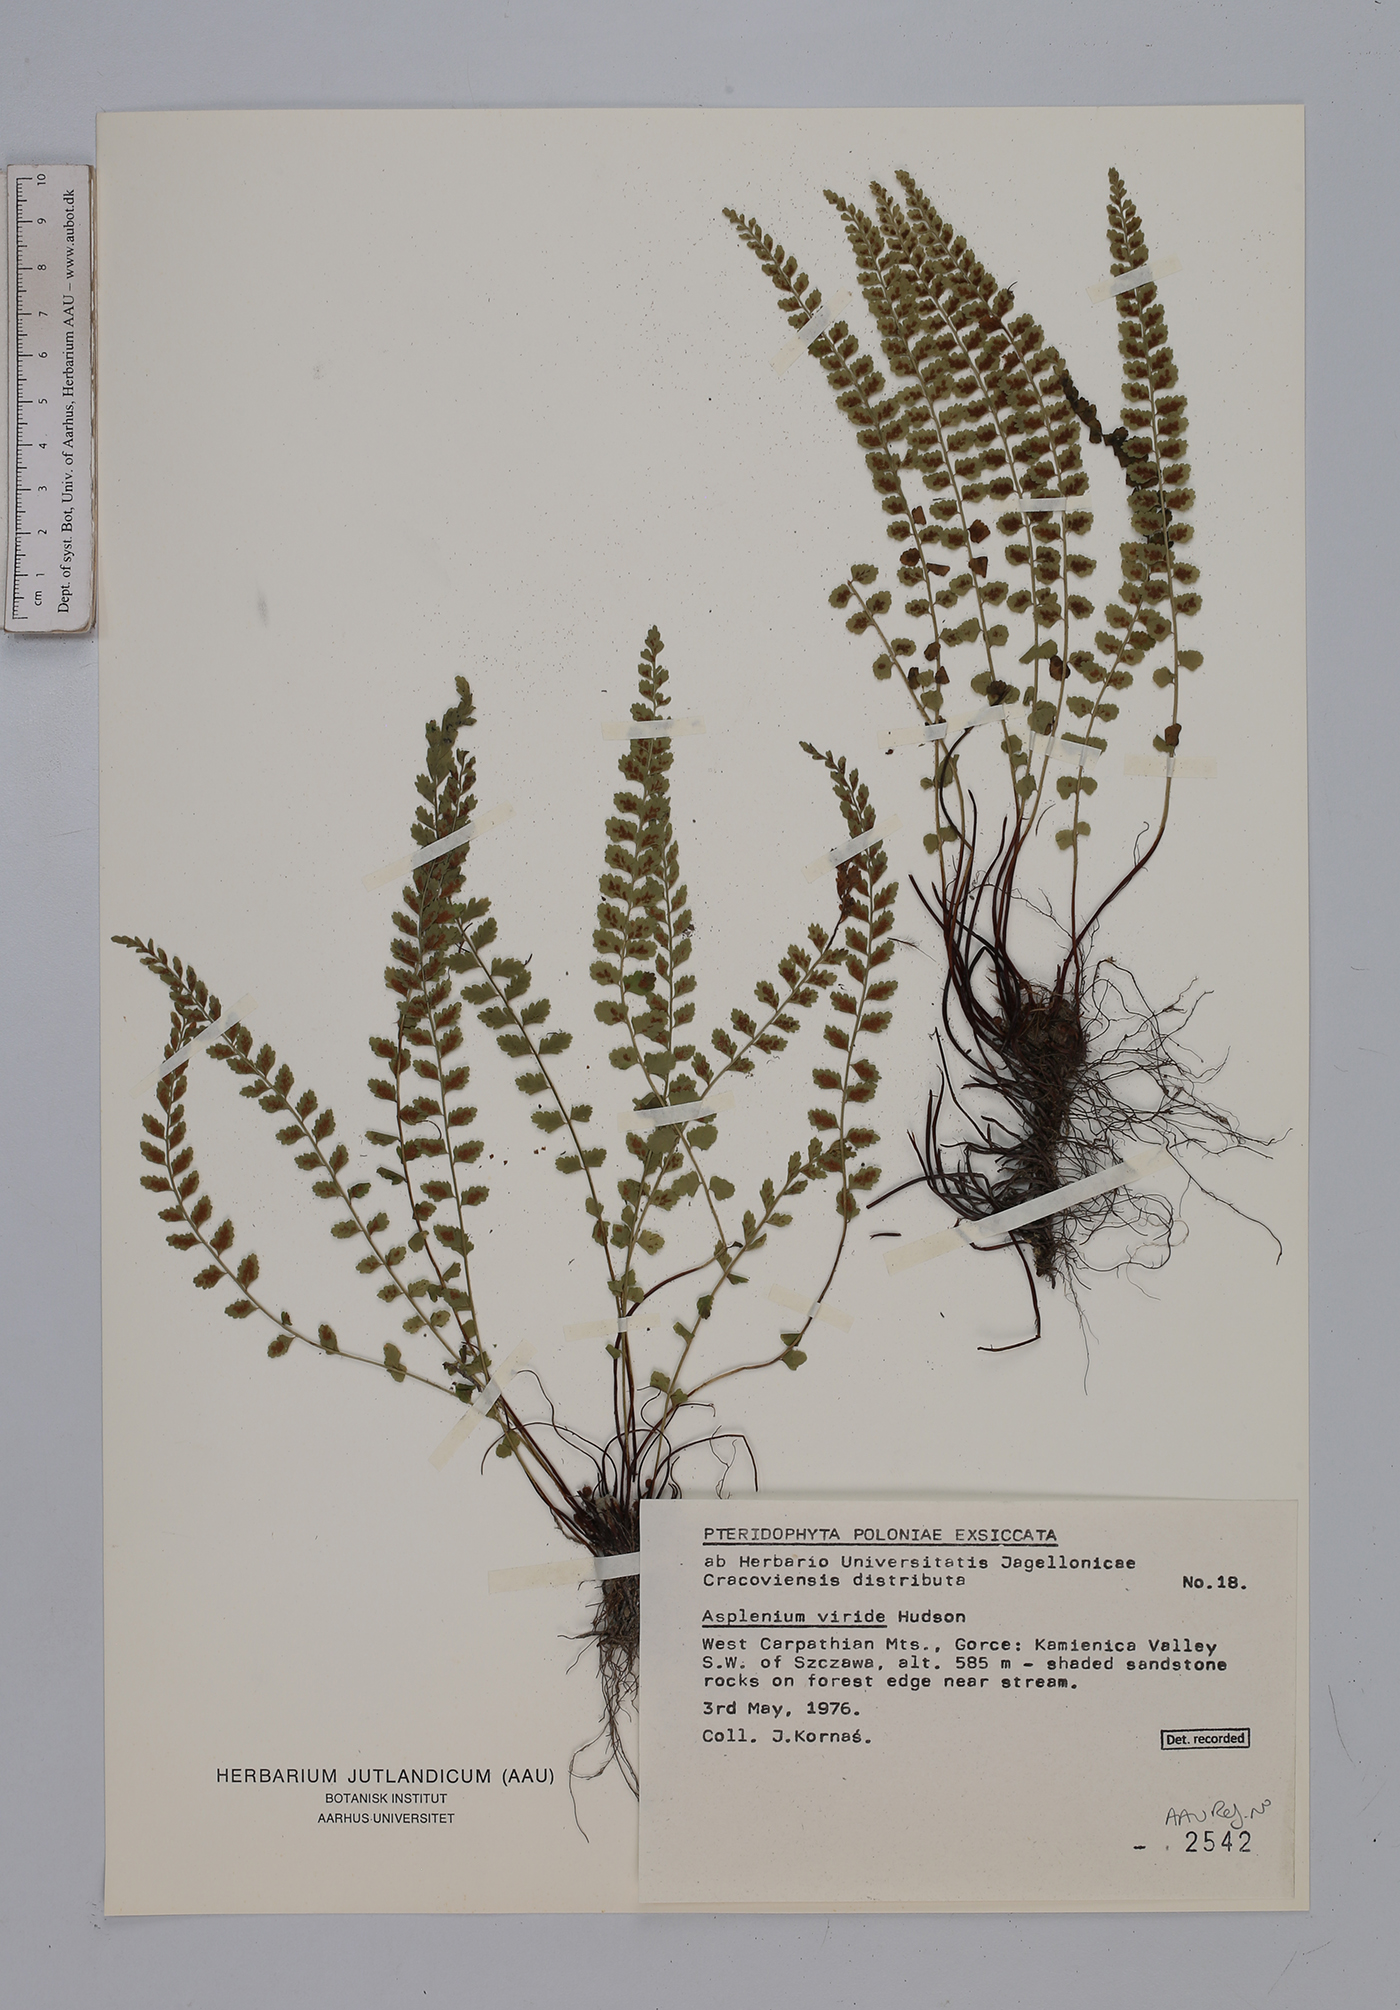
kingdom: Plantae
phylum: Tracheophyta
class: Polypodiopsida
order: Polypodiales
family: Aspleniaceae
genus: Asplenium
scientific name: Asplenium viride
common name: Green spleenwort
